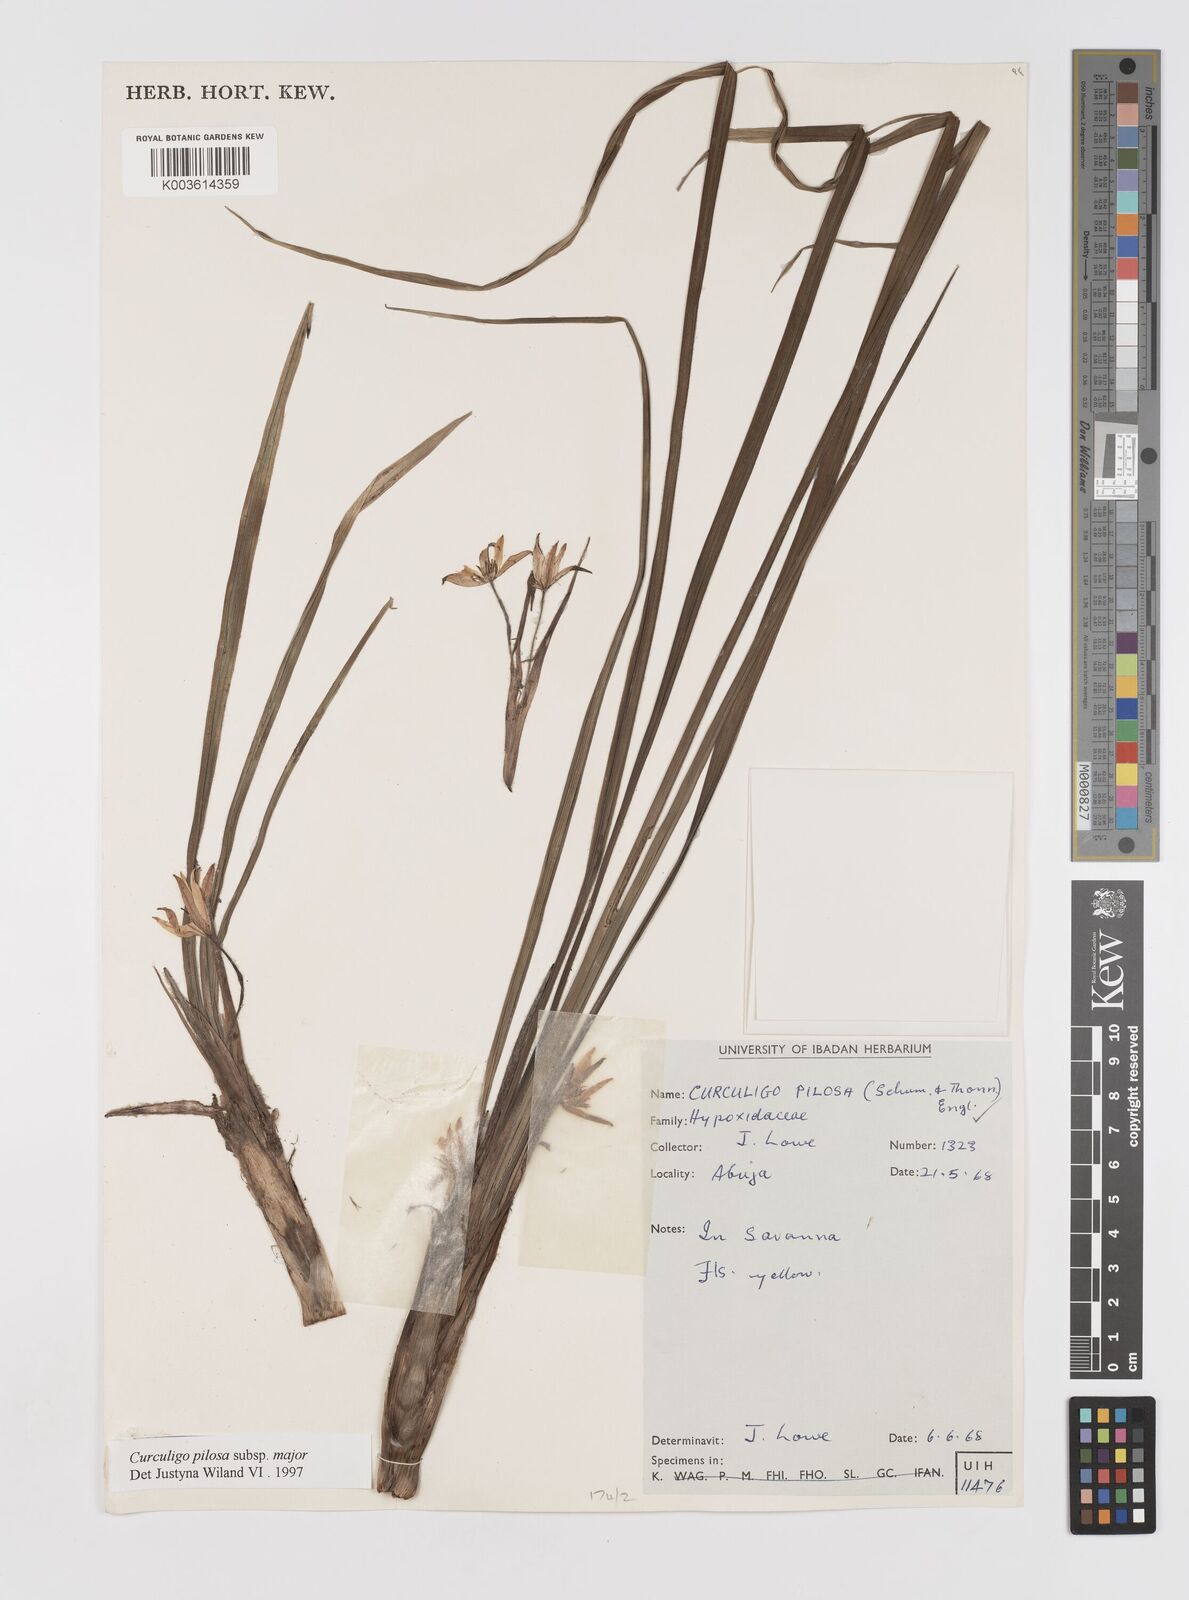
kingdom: Plantae
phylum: Tracheophyta
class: Liliopsida
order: Asparagales
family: Hypoxidaceae
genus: Curculigo
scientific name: Curculigo pilosa
